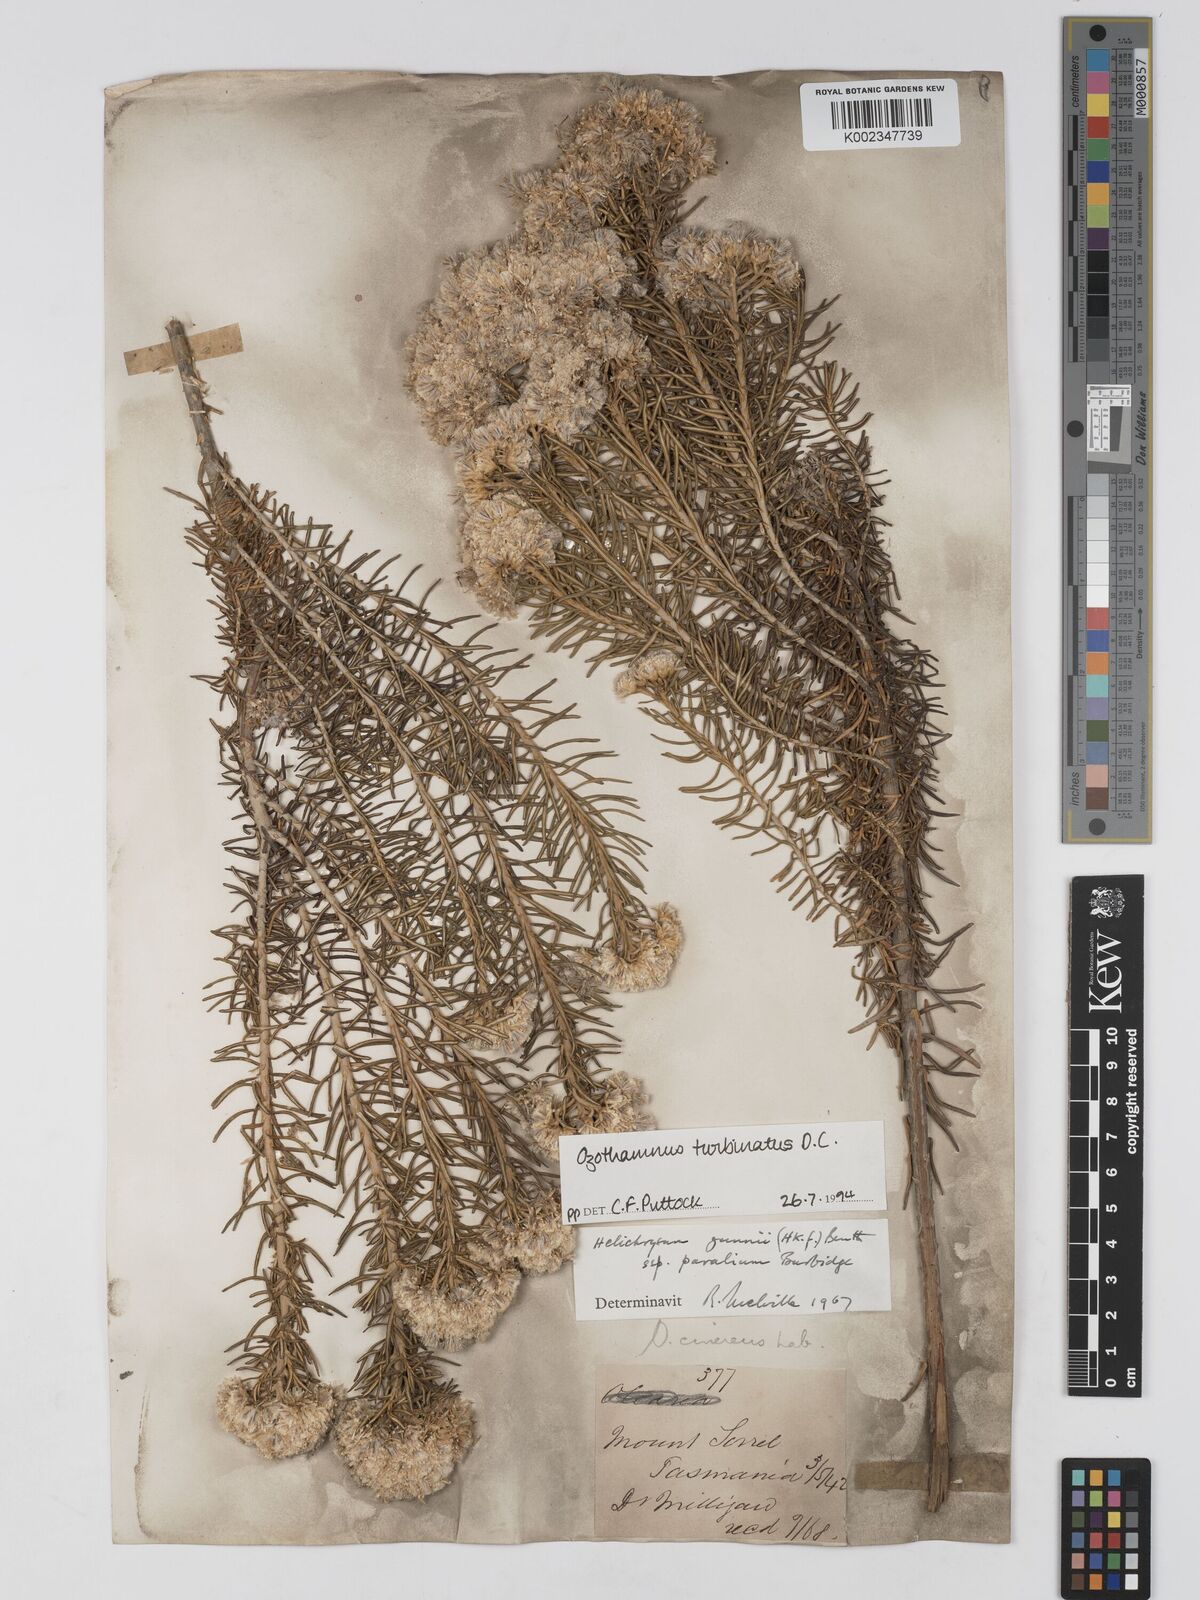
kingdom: Plantae
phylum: Tracheophyta
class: Magnoliopsida
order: Asterales
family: Asteraceae
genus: Ozothamnus
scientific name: Ozothamnus gunnii
